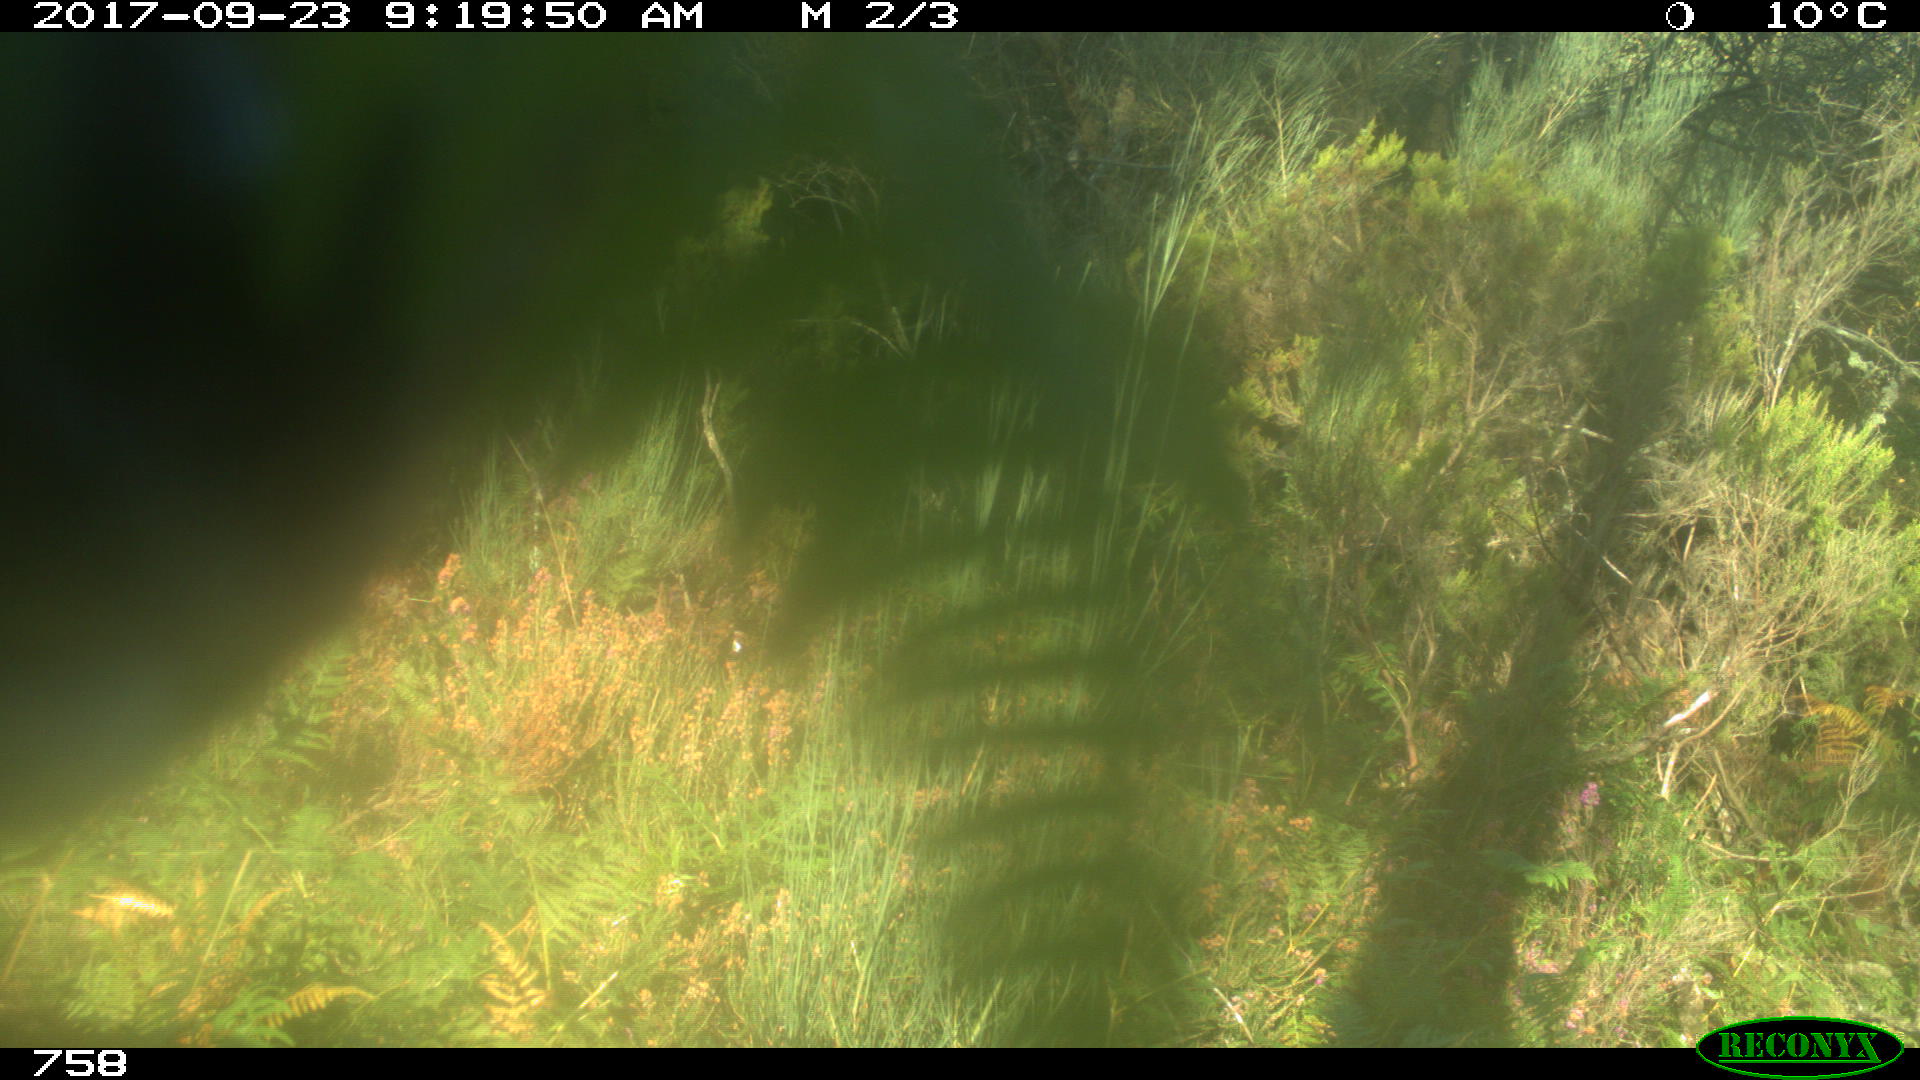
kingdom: Animalia
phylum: Chordata
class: Mammalia
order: Perissodactyla
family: Equidae
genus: Equus
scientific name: Equus caballus
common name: Horse
